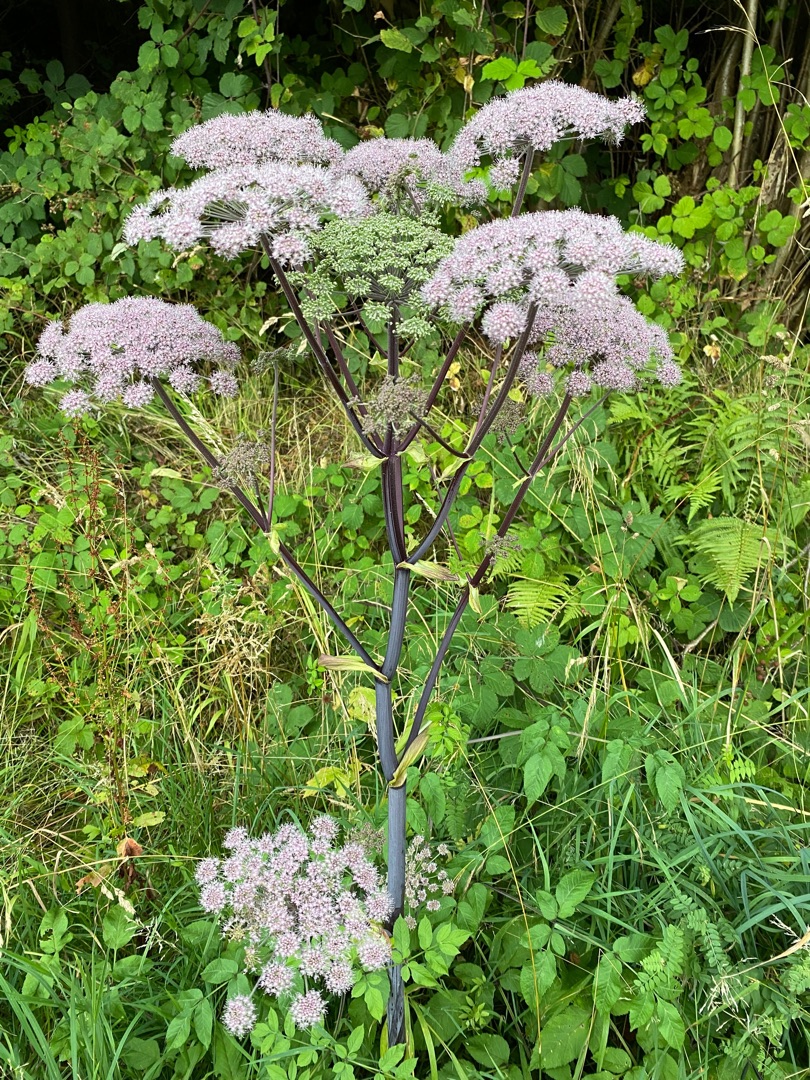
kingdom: Plantae
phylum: Tracheophyta
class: Magnoliopsida
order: Apiales
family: Apiaceae
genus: Angelica
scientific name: Angelica sylvestris
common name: Angelik
